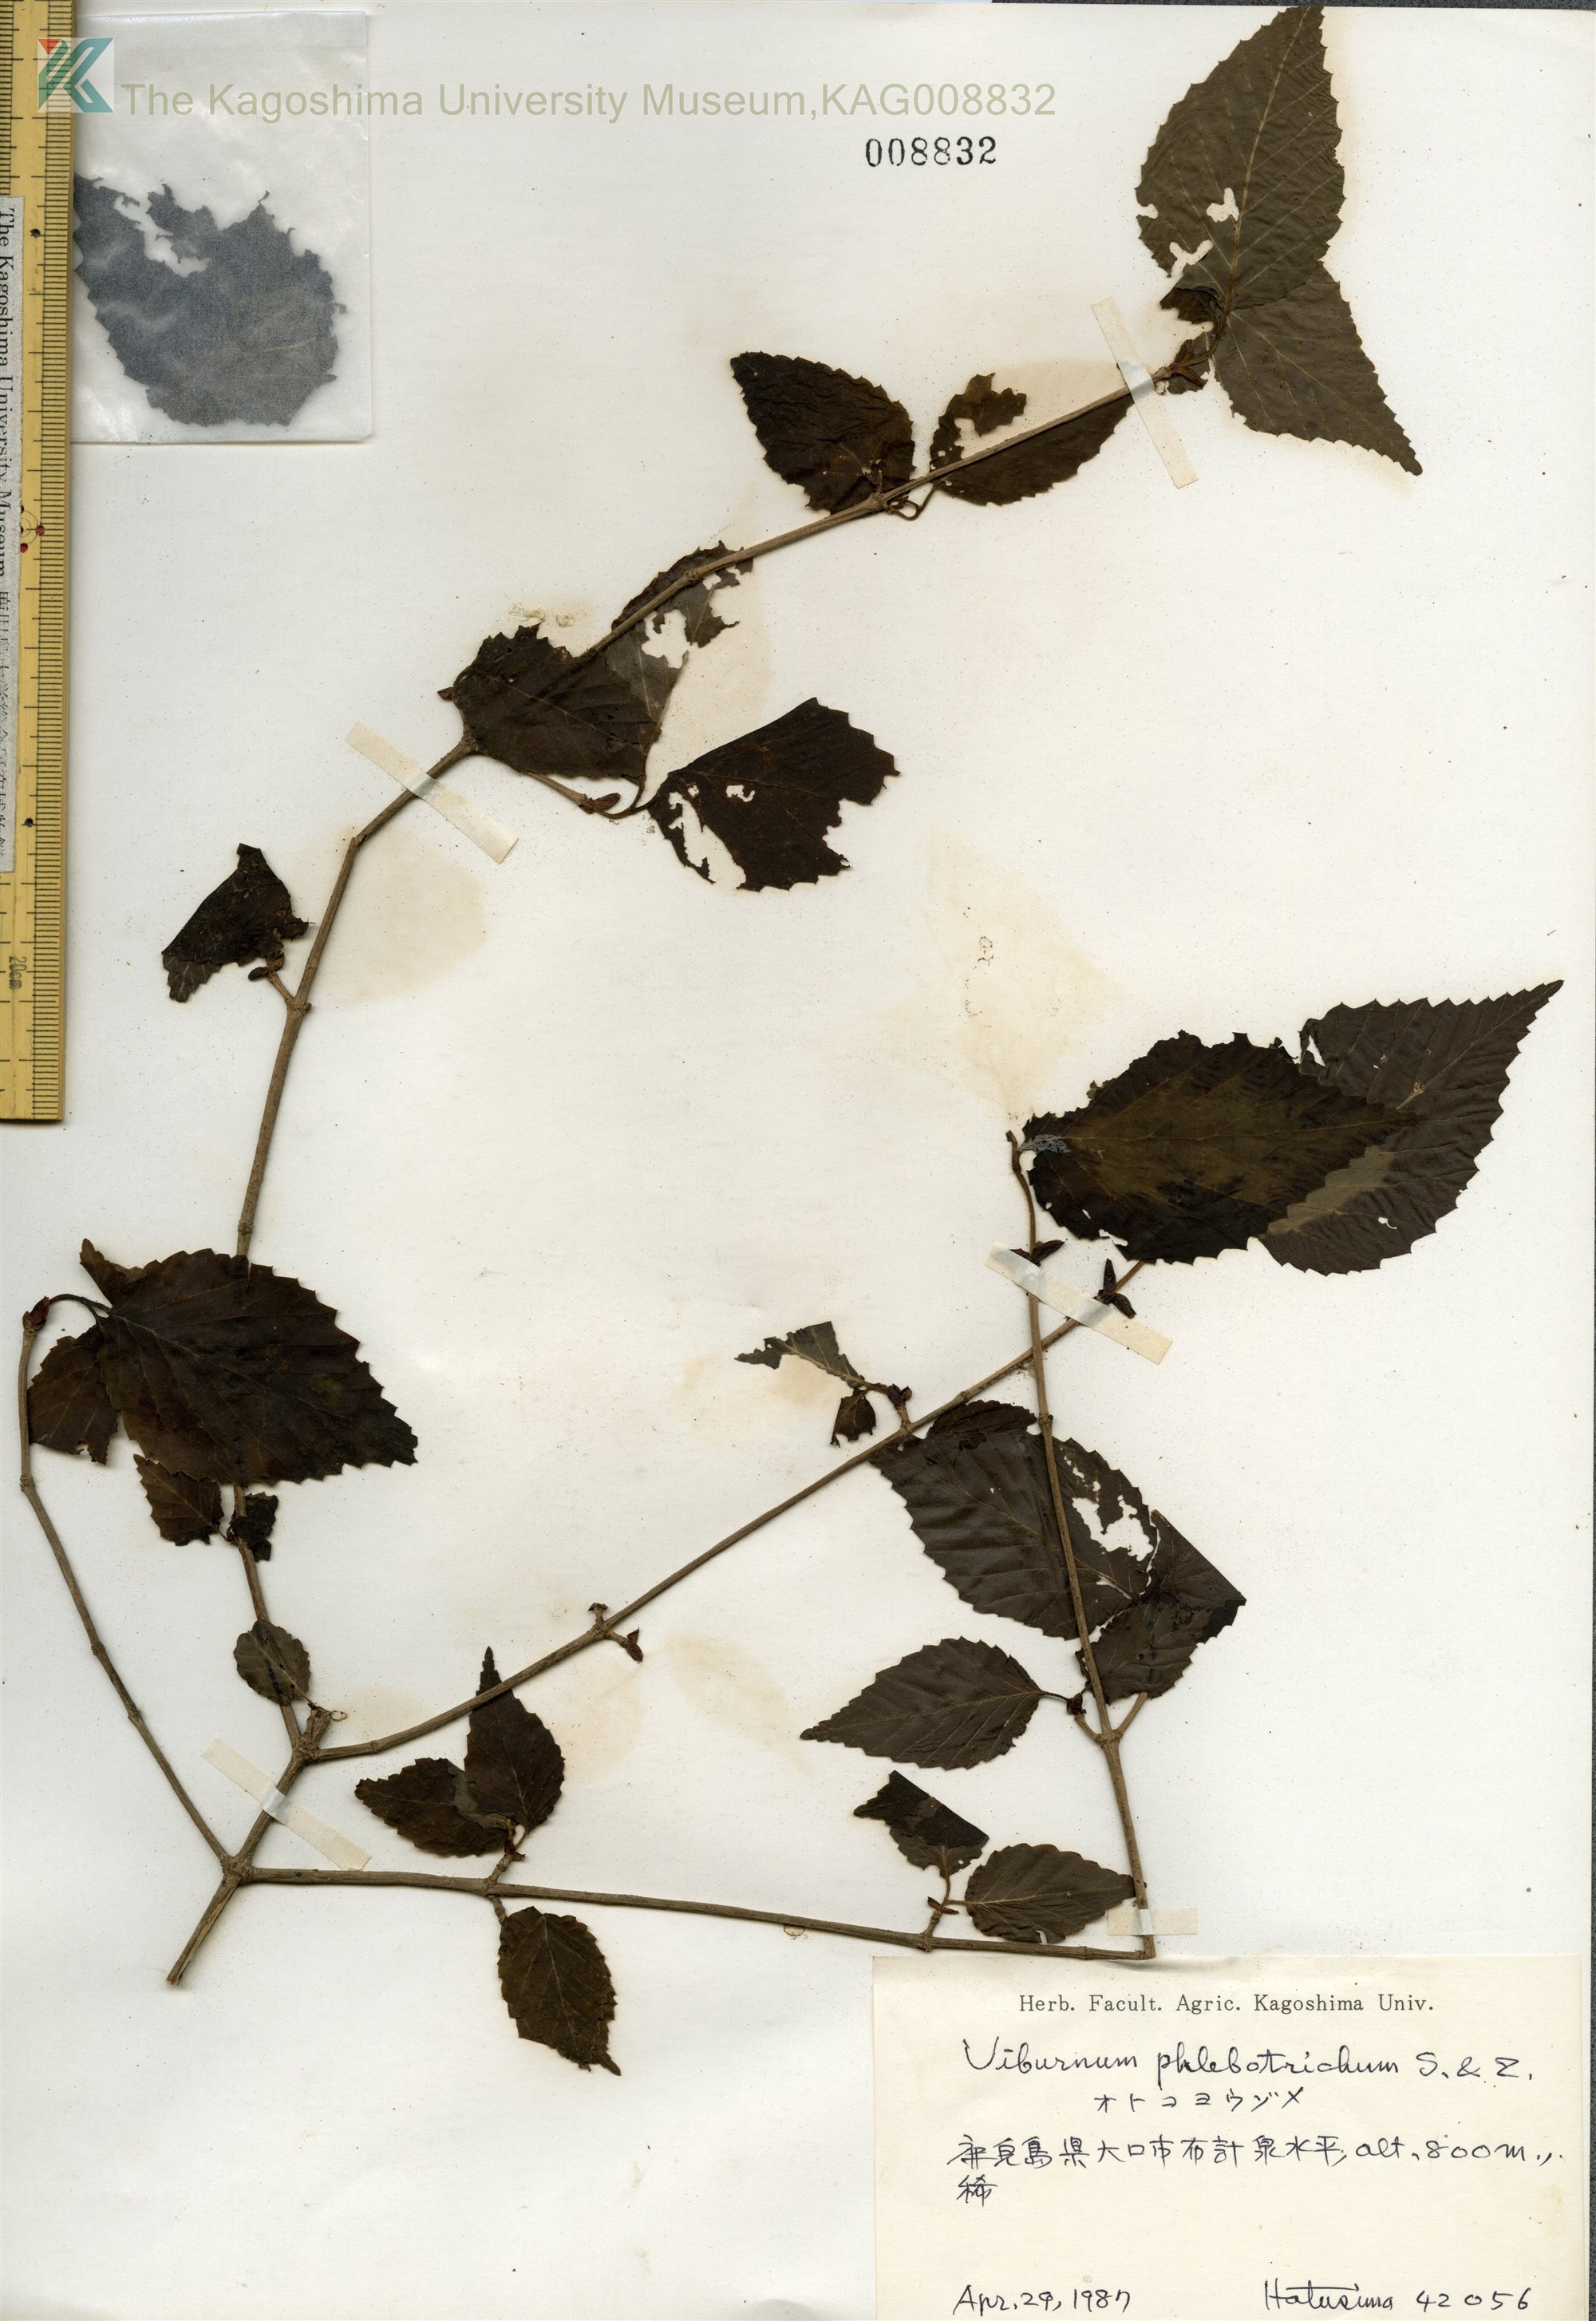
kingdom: Plantae
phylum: Tracheophyta
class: Magnoliopsida
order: Dipsacales
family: Viburnaceae
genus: Viburnum
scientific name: Viburnum phlebotrichum
